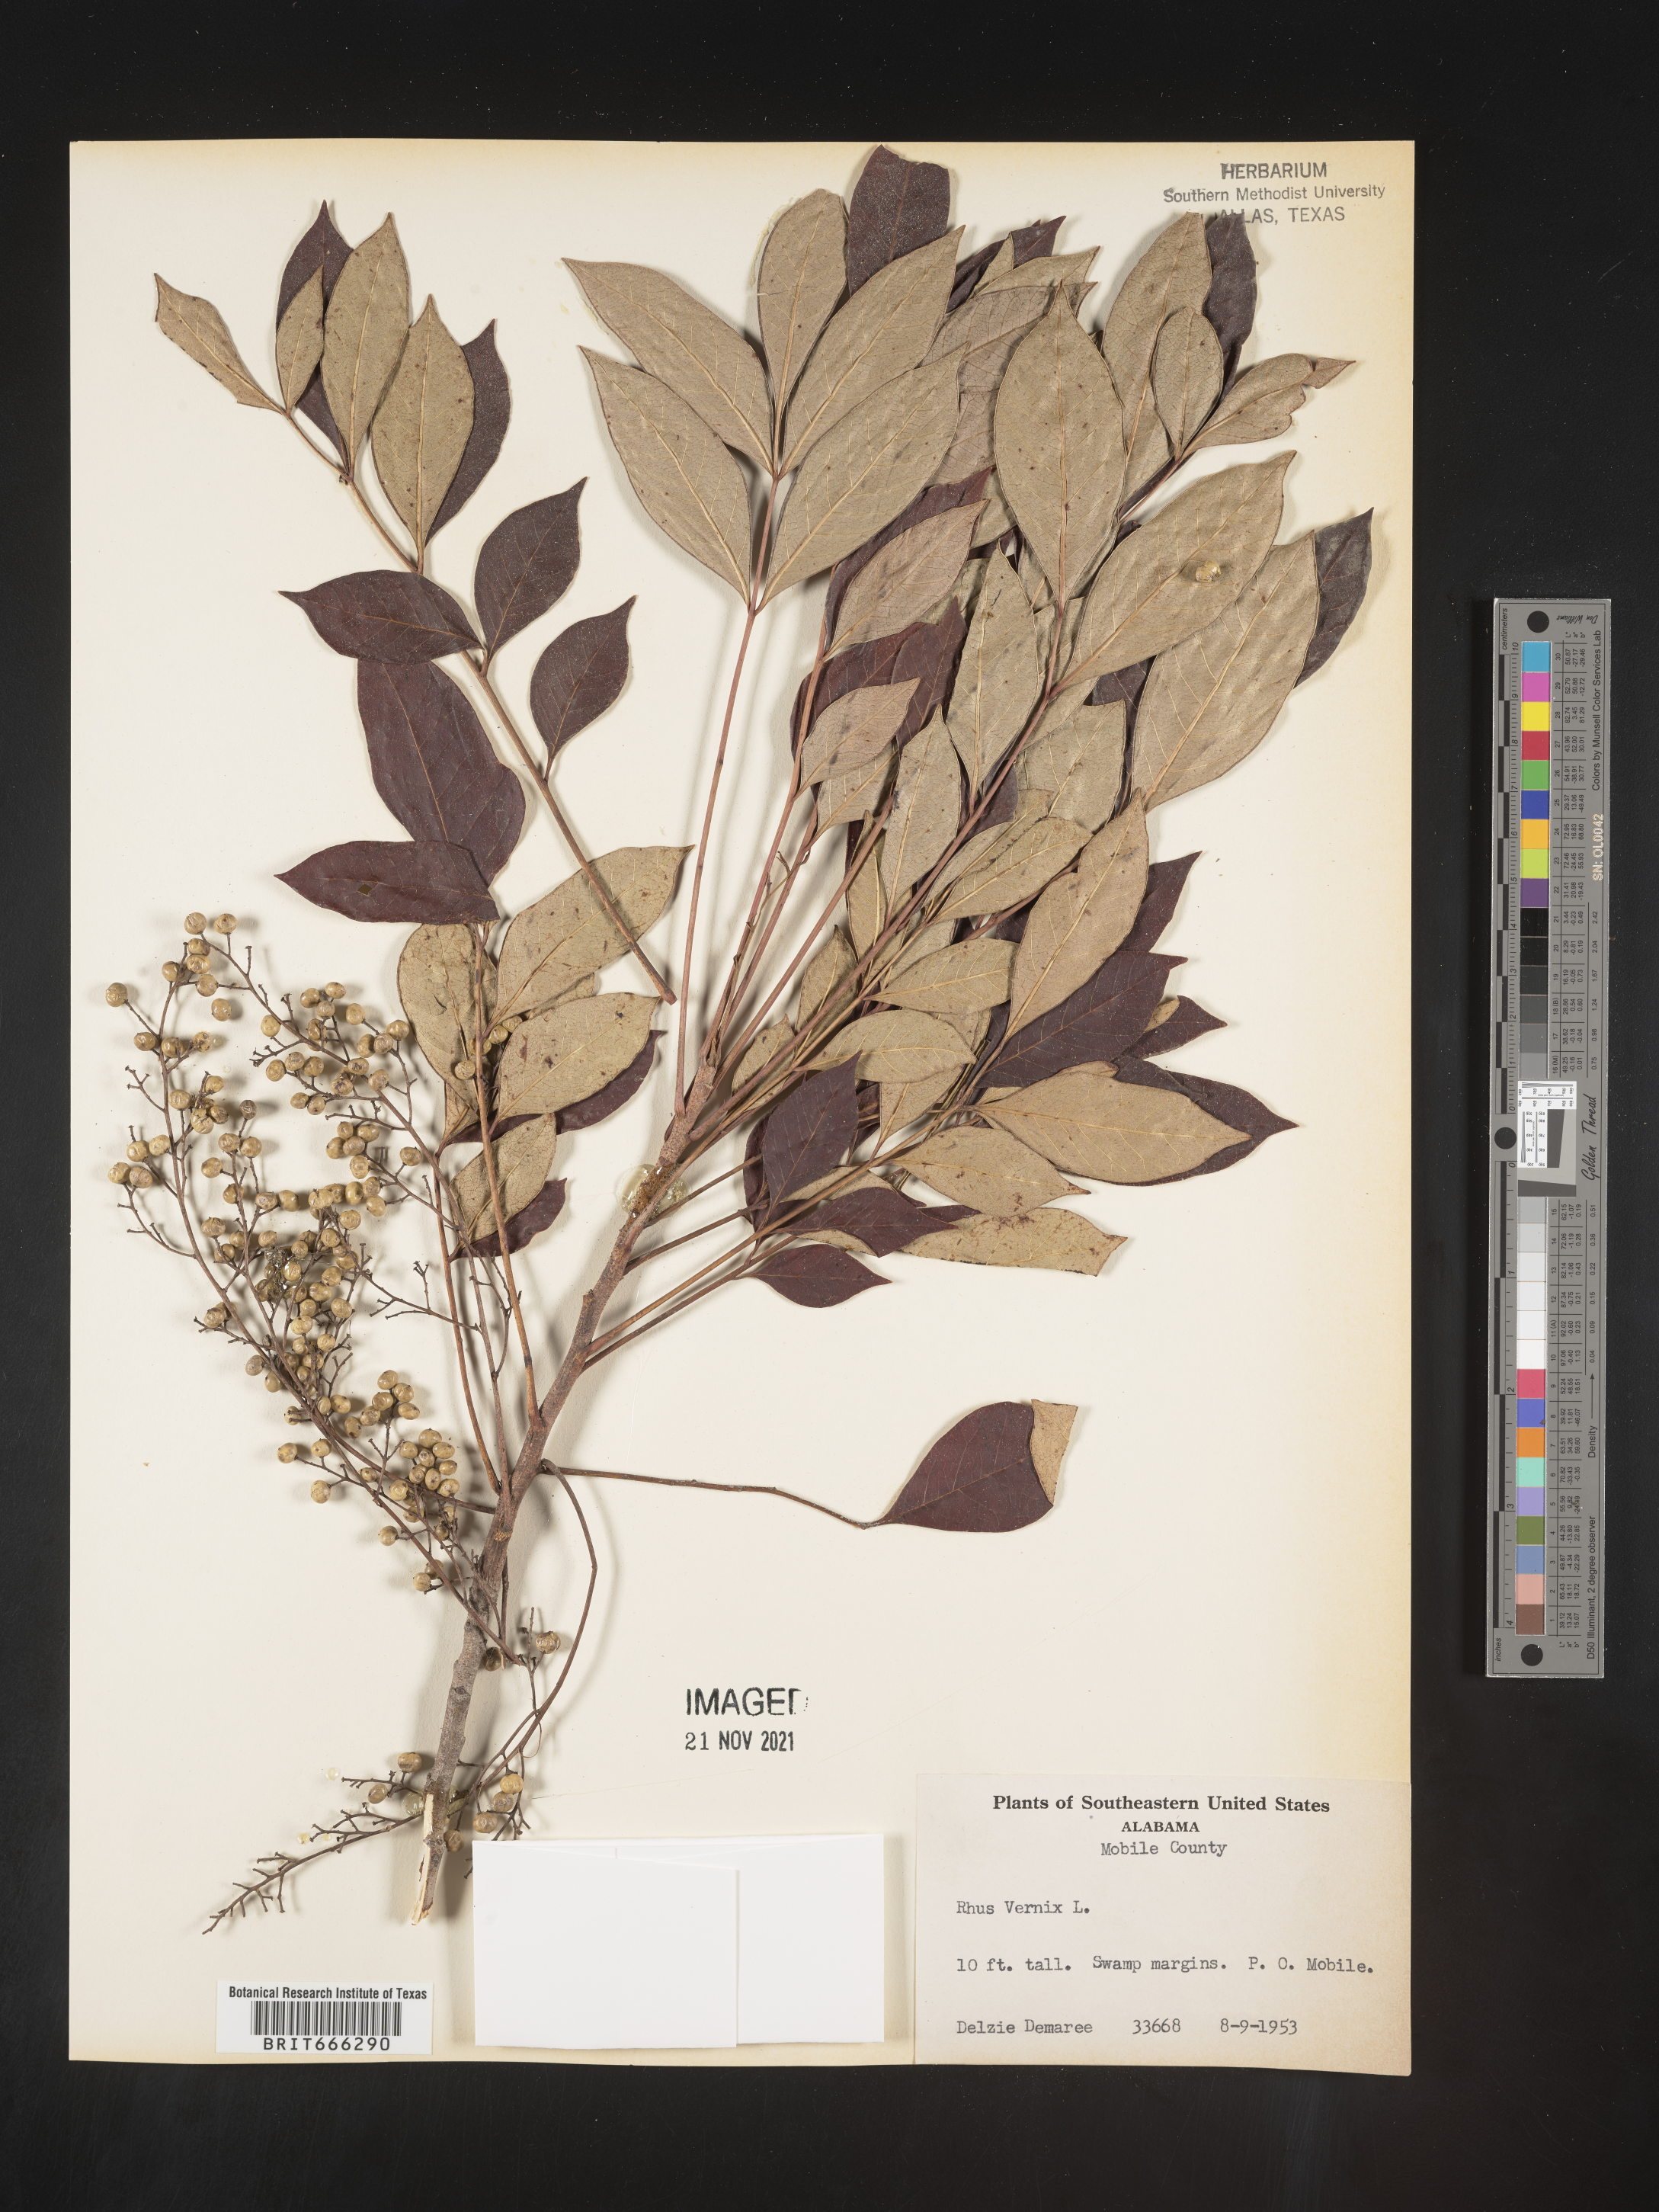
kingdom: Plantae
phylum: Tracheophyta
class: Magnoliopsida
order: Sapindales
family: Anacardiaceae
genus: Toxicodendron
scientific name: Toxicodendron vernix
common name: Poison sumac
